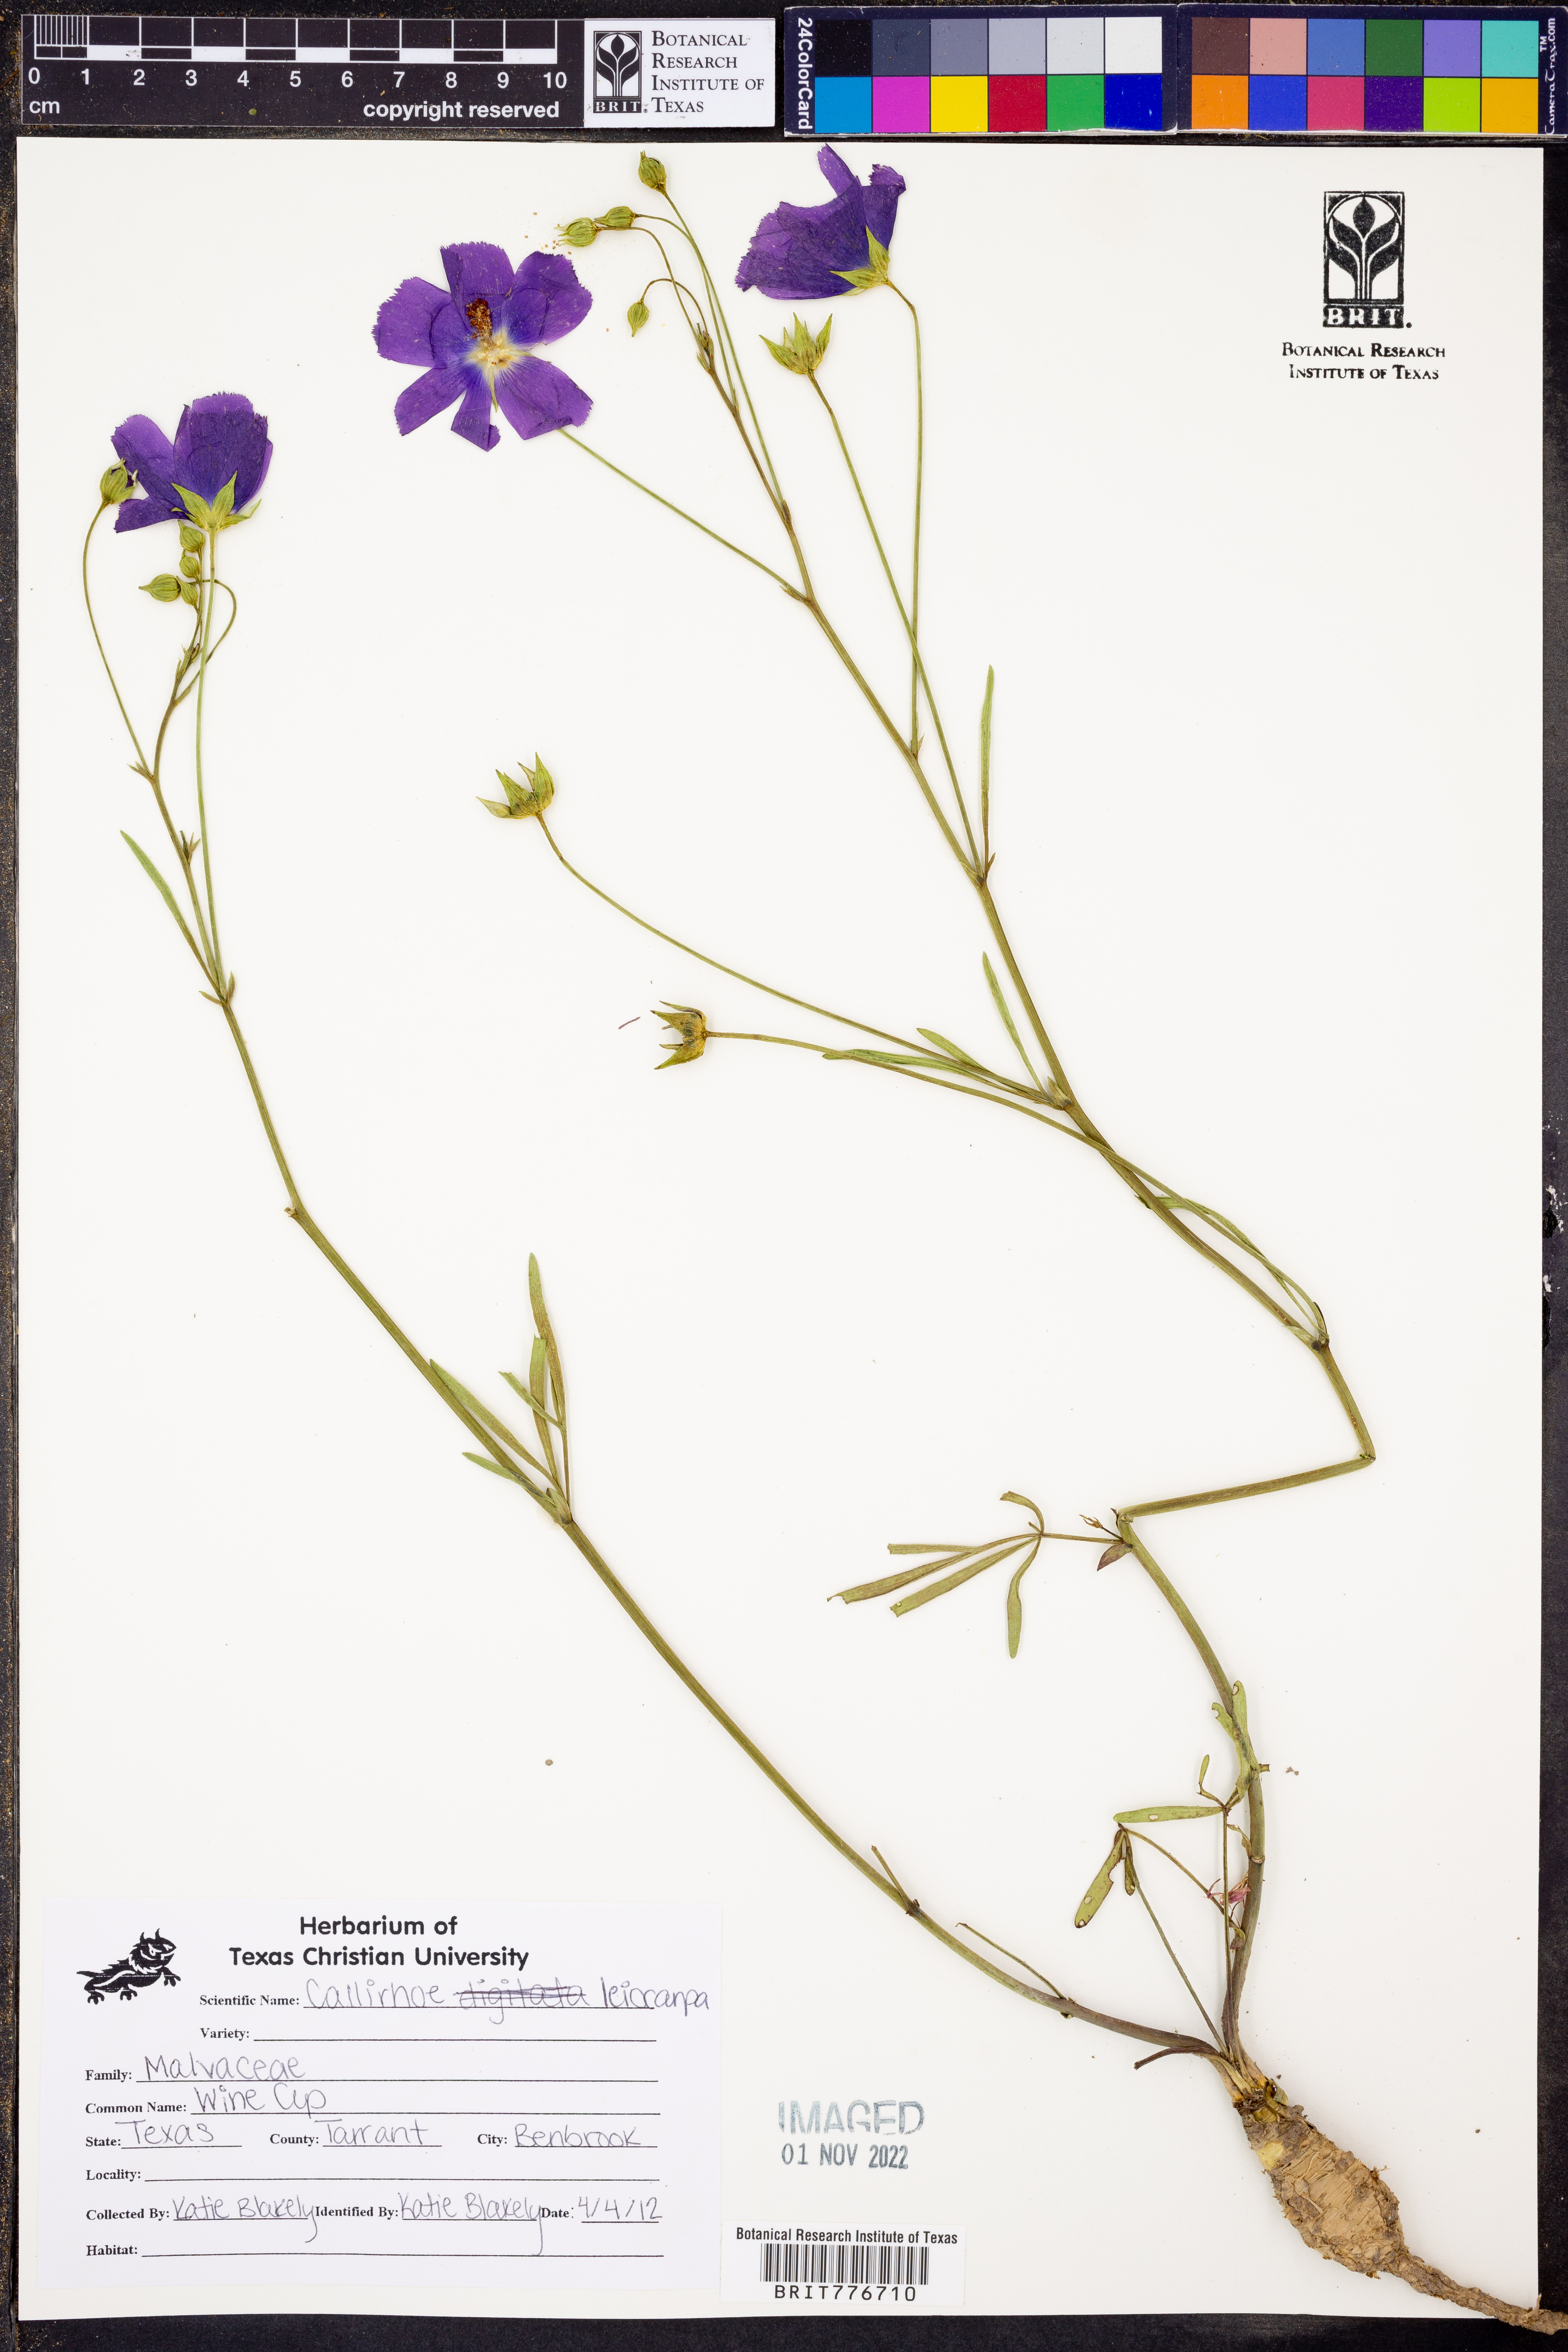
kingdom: Plantae
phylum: Tracheophyta
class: Magnoliopsida
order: Malvales
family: Malvaceae
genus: Callirhoe
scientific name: Callirhoe leiocarpa
